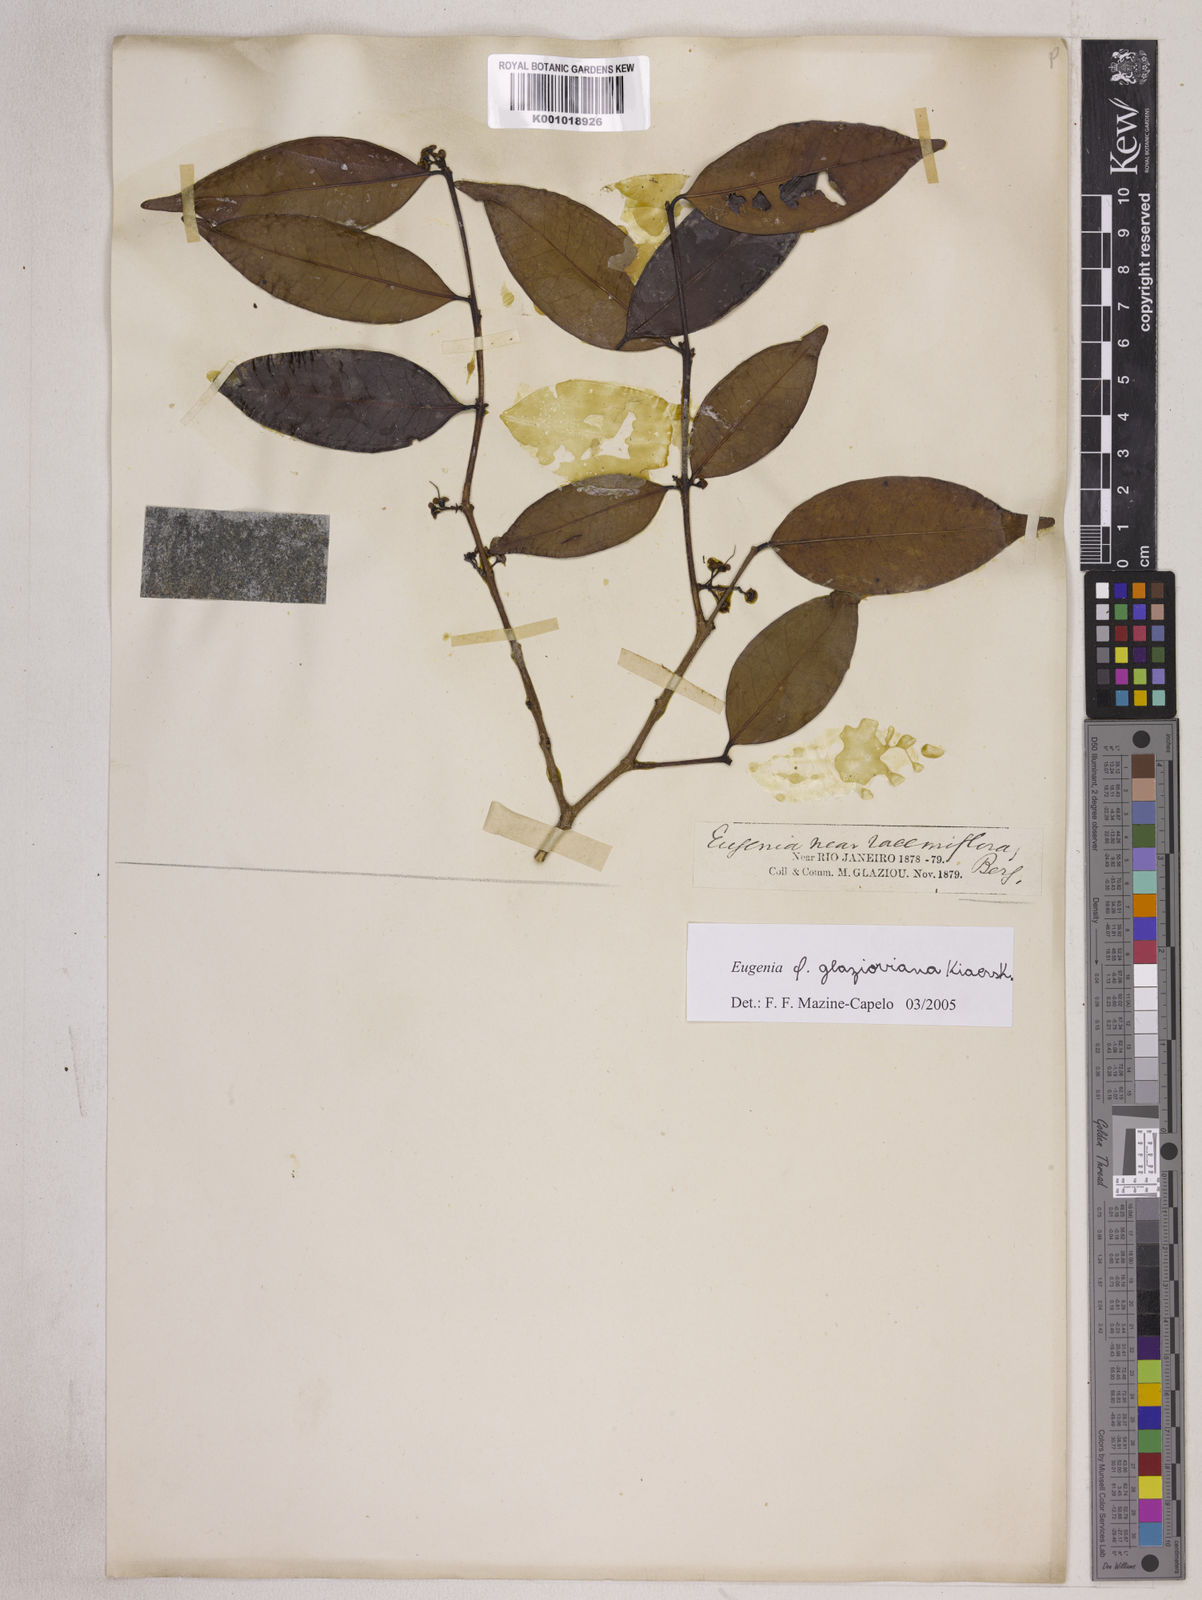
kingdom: Plantae
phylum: Tracheophyta
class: Magnoliopsida
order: Myrtales
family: Myrtaceae
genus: Eugenia
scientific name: Eugenia francavilleana
